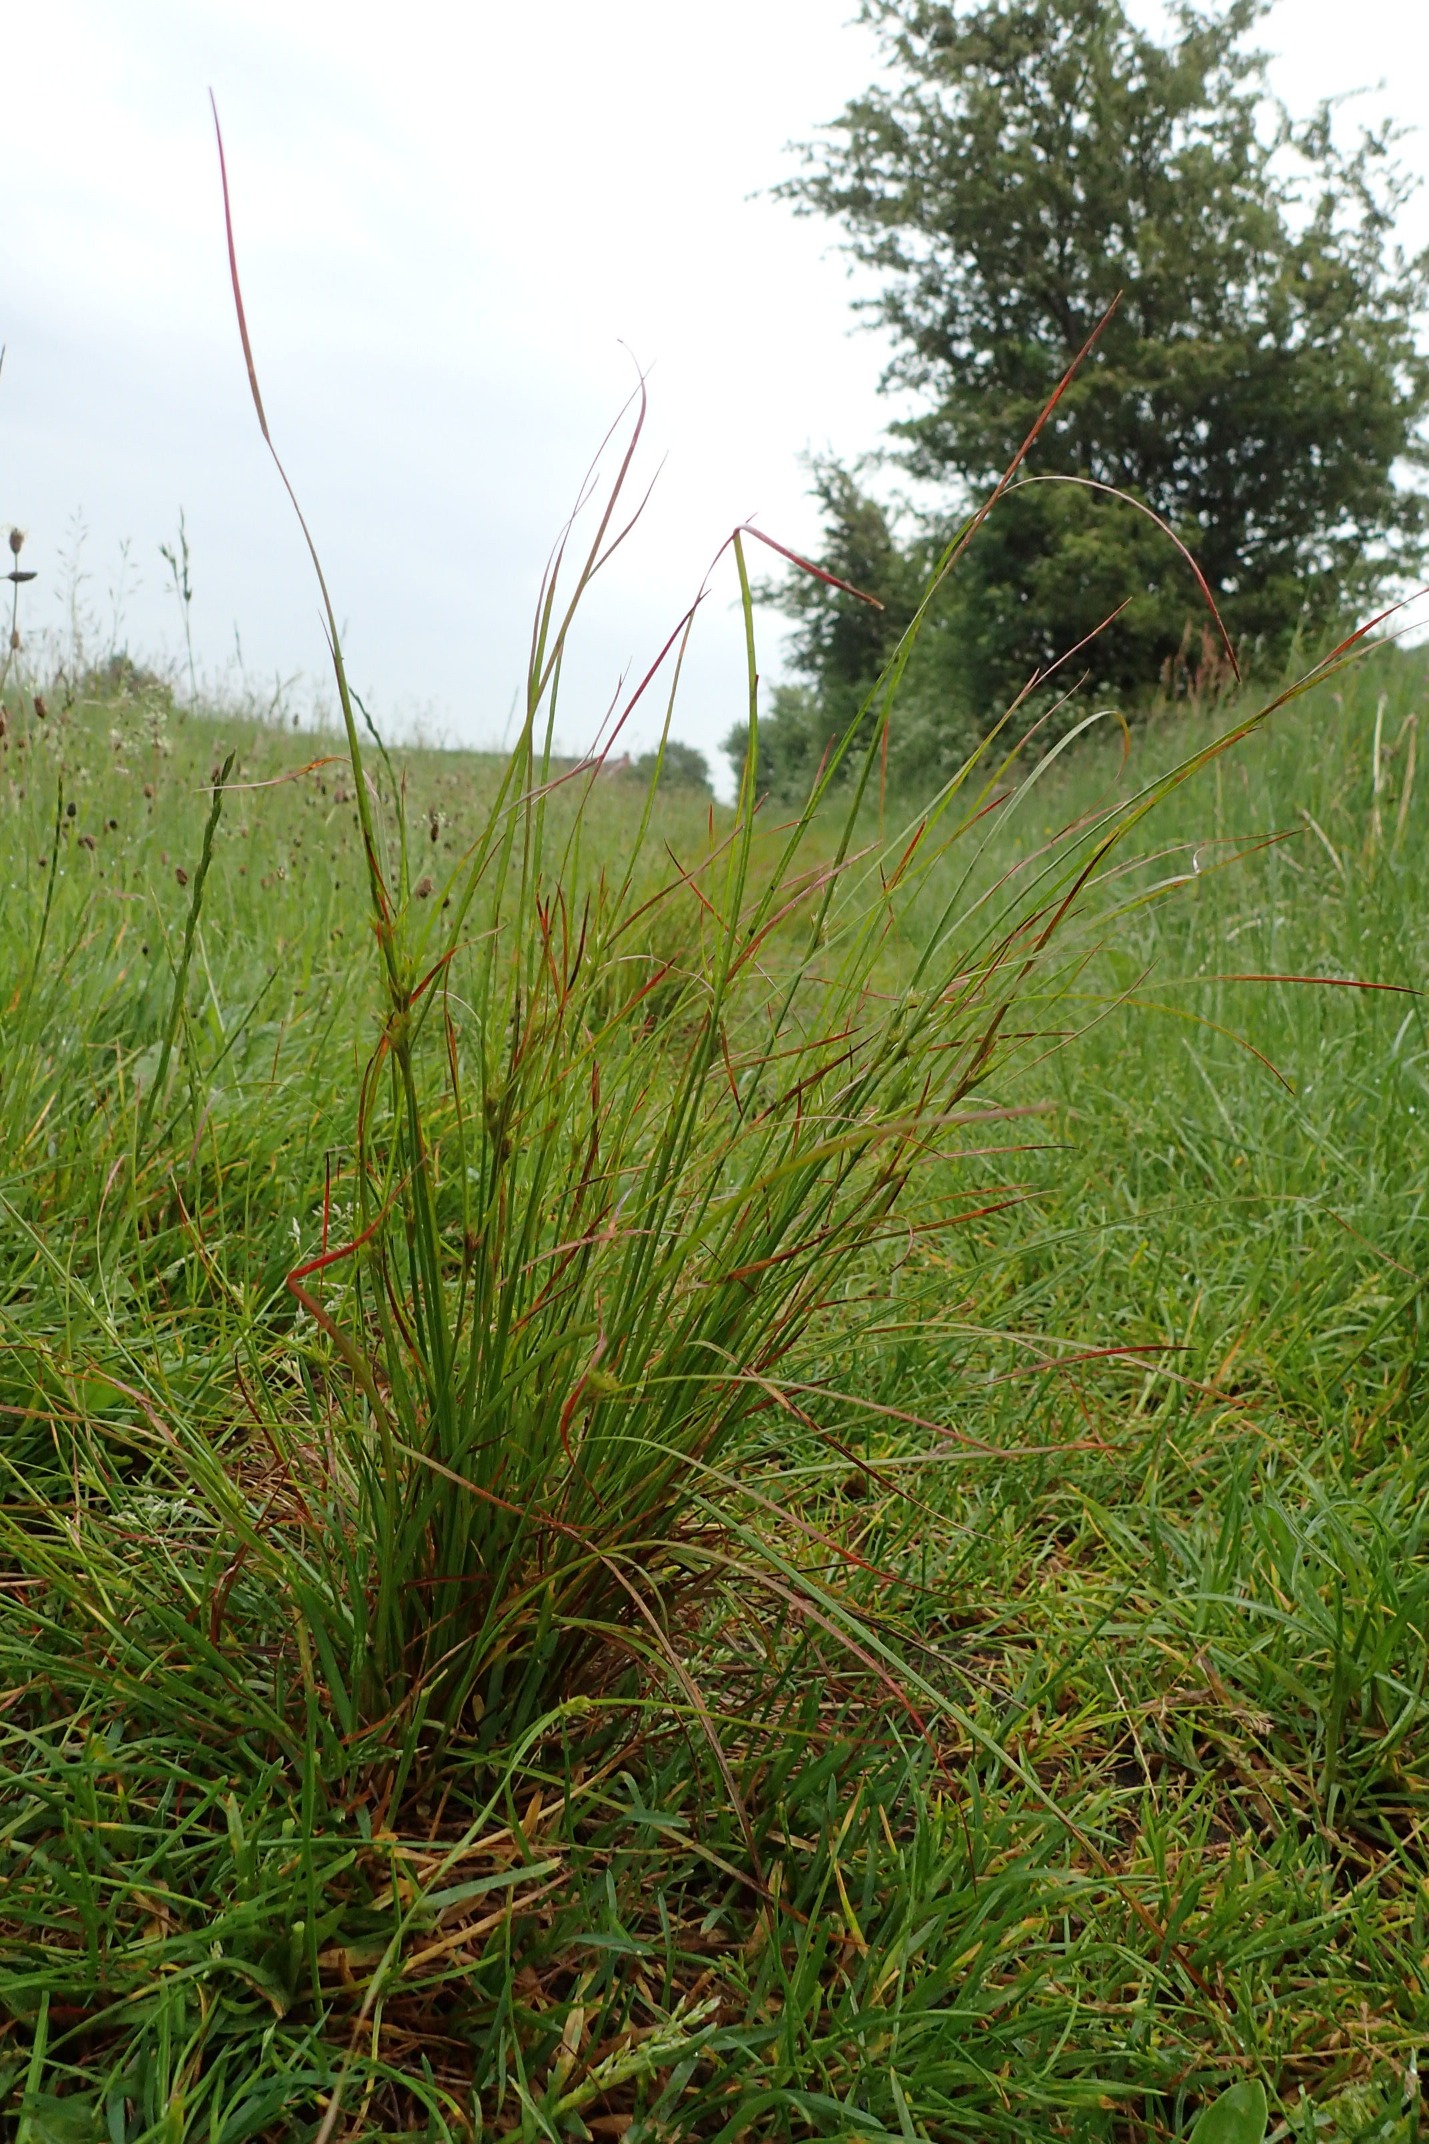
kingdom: Plantae
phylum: Tracheophyta
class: Liliopsida
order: Poales
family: Juncaceae
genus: Juncus
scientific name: Juncus tenuis
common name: Tue-siv
